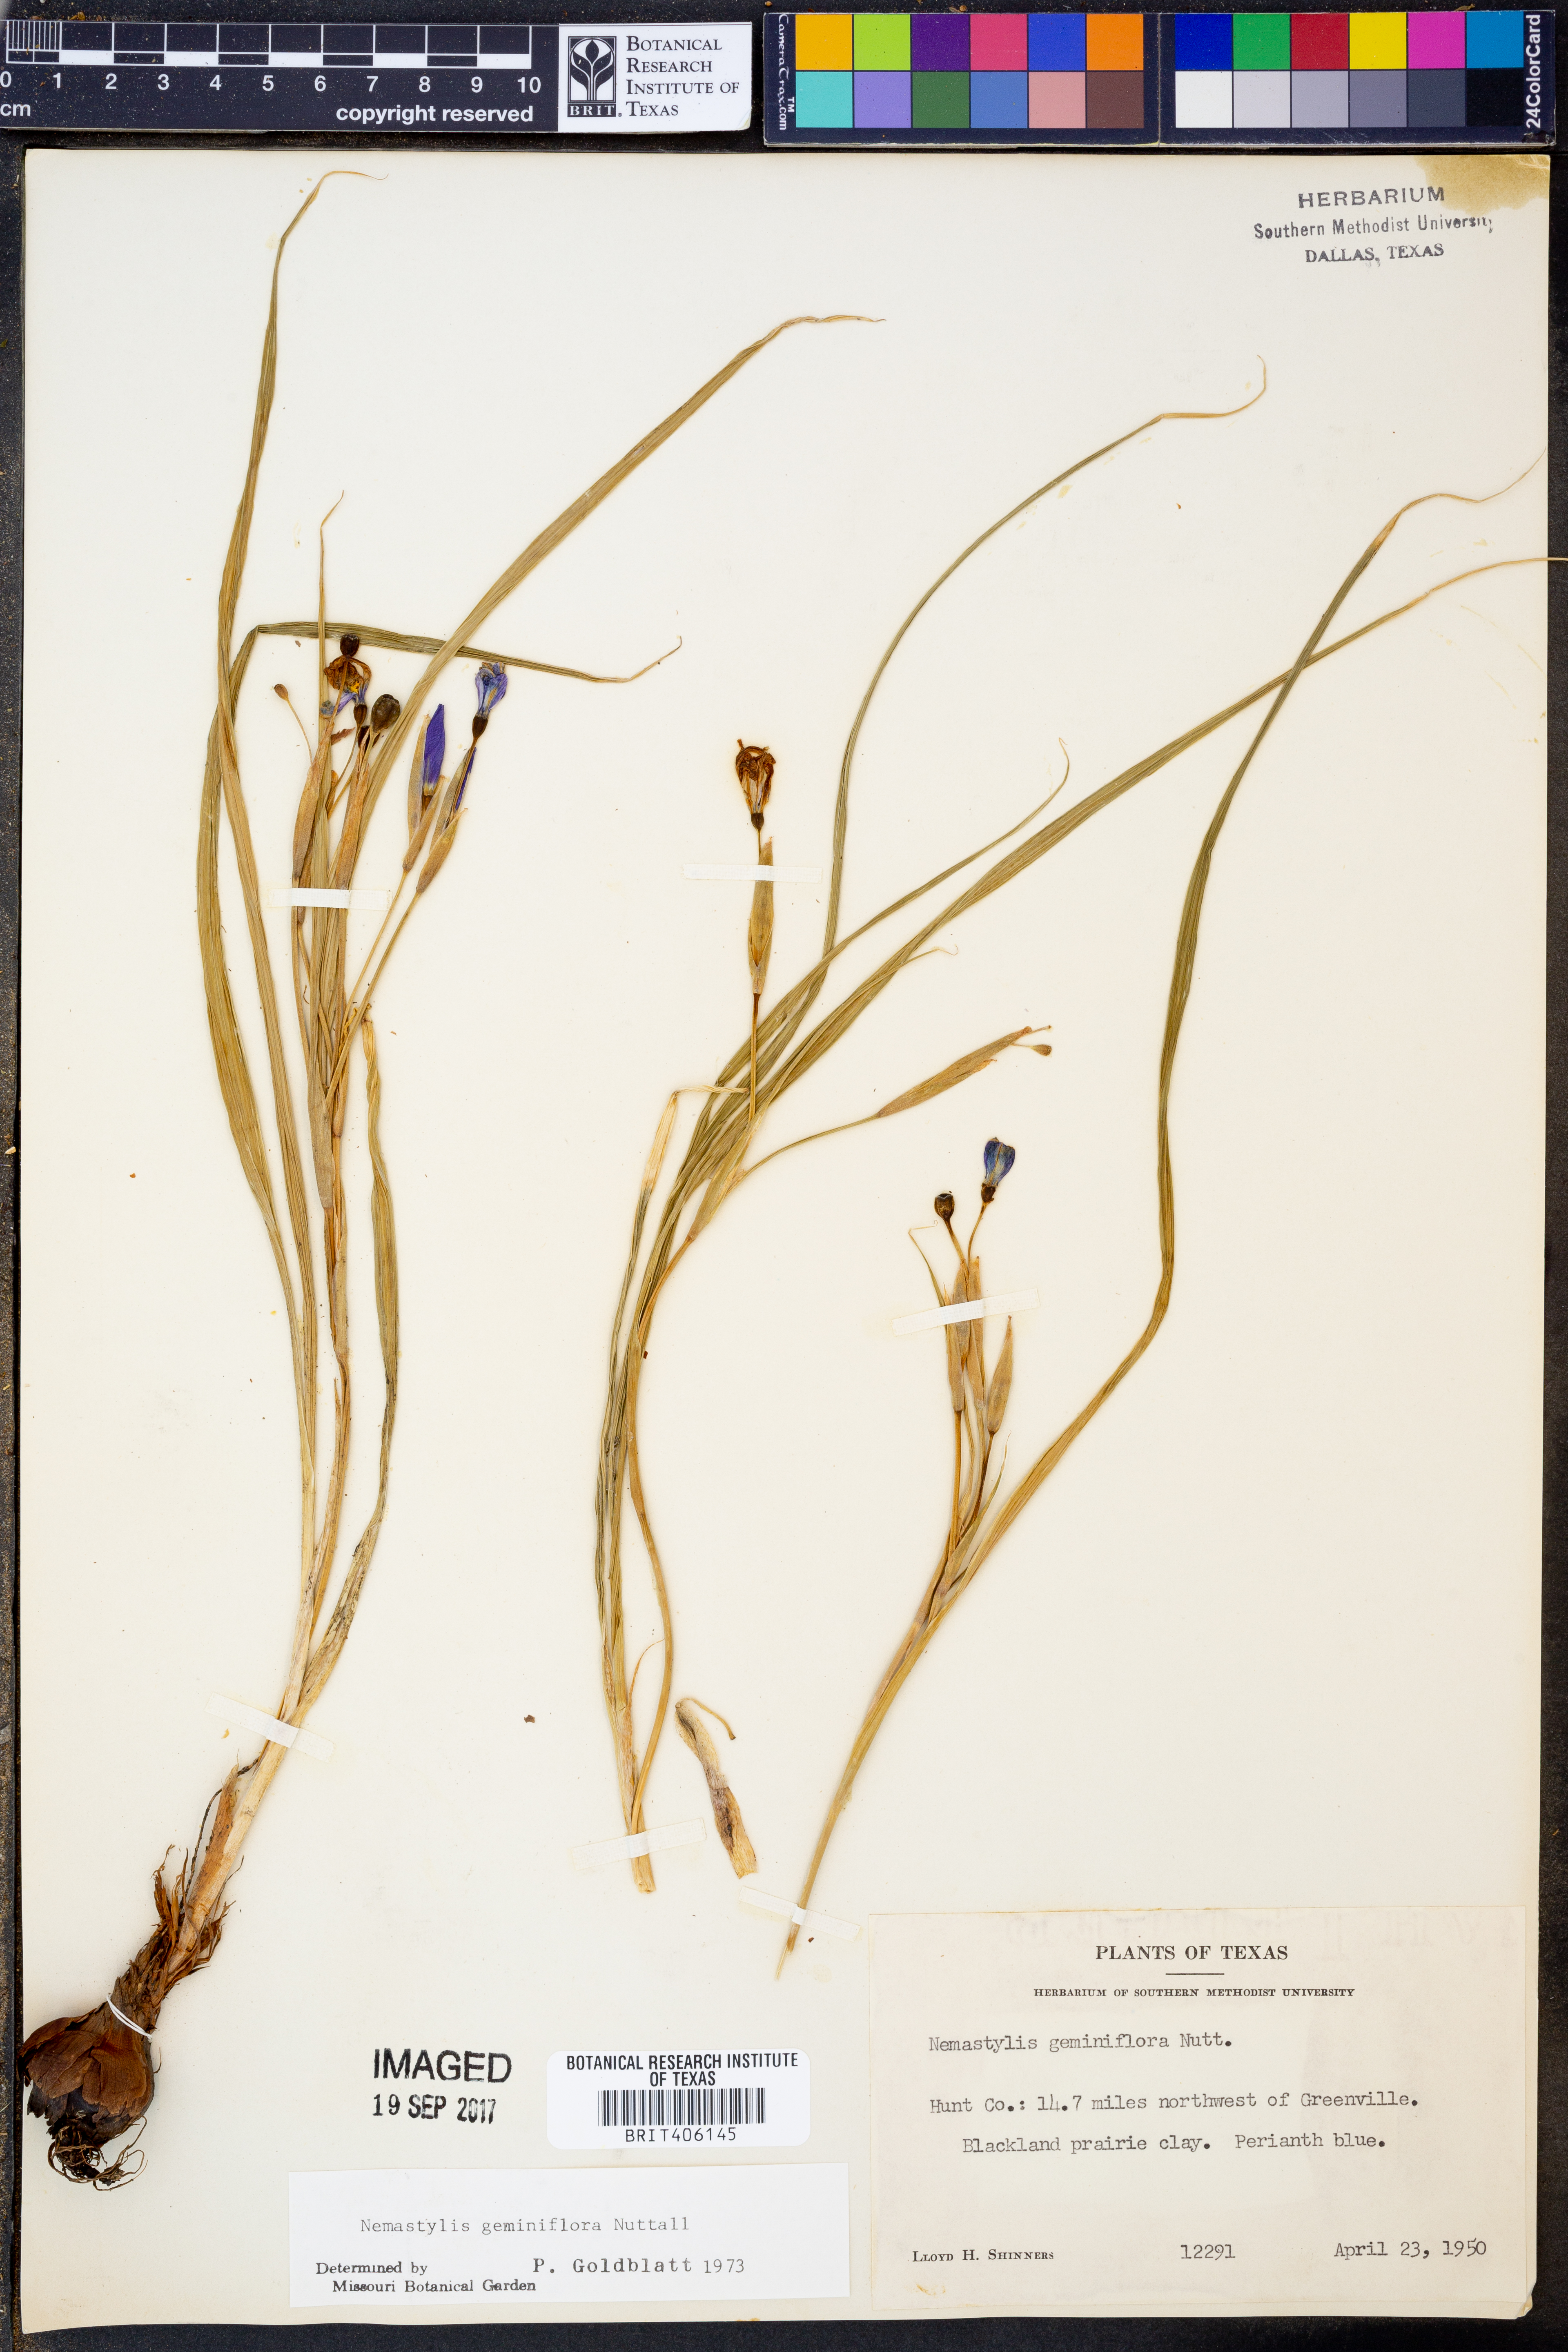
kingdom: Plantae
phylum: Tracheophyta
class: Liliopsida
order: Asparagales
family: Iridaceae
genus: Nemastylis
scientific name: Nemastylis geminiflora
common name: Prairie celestial
